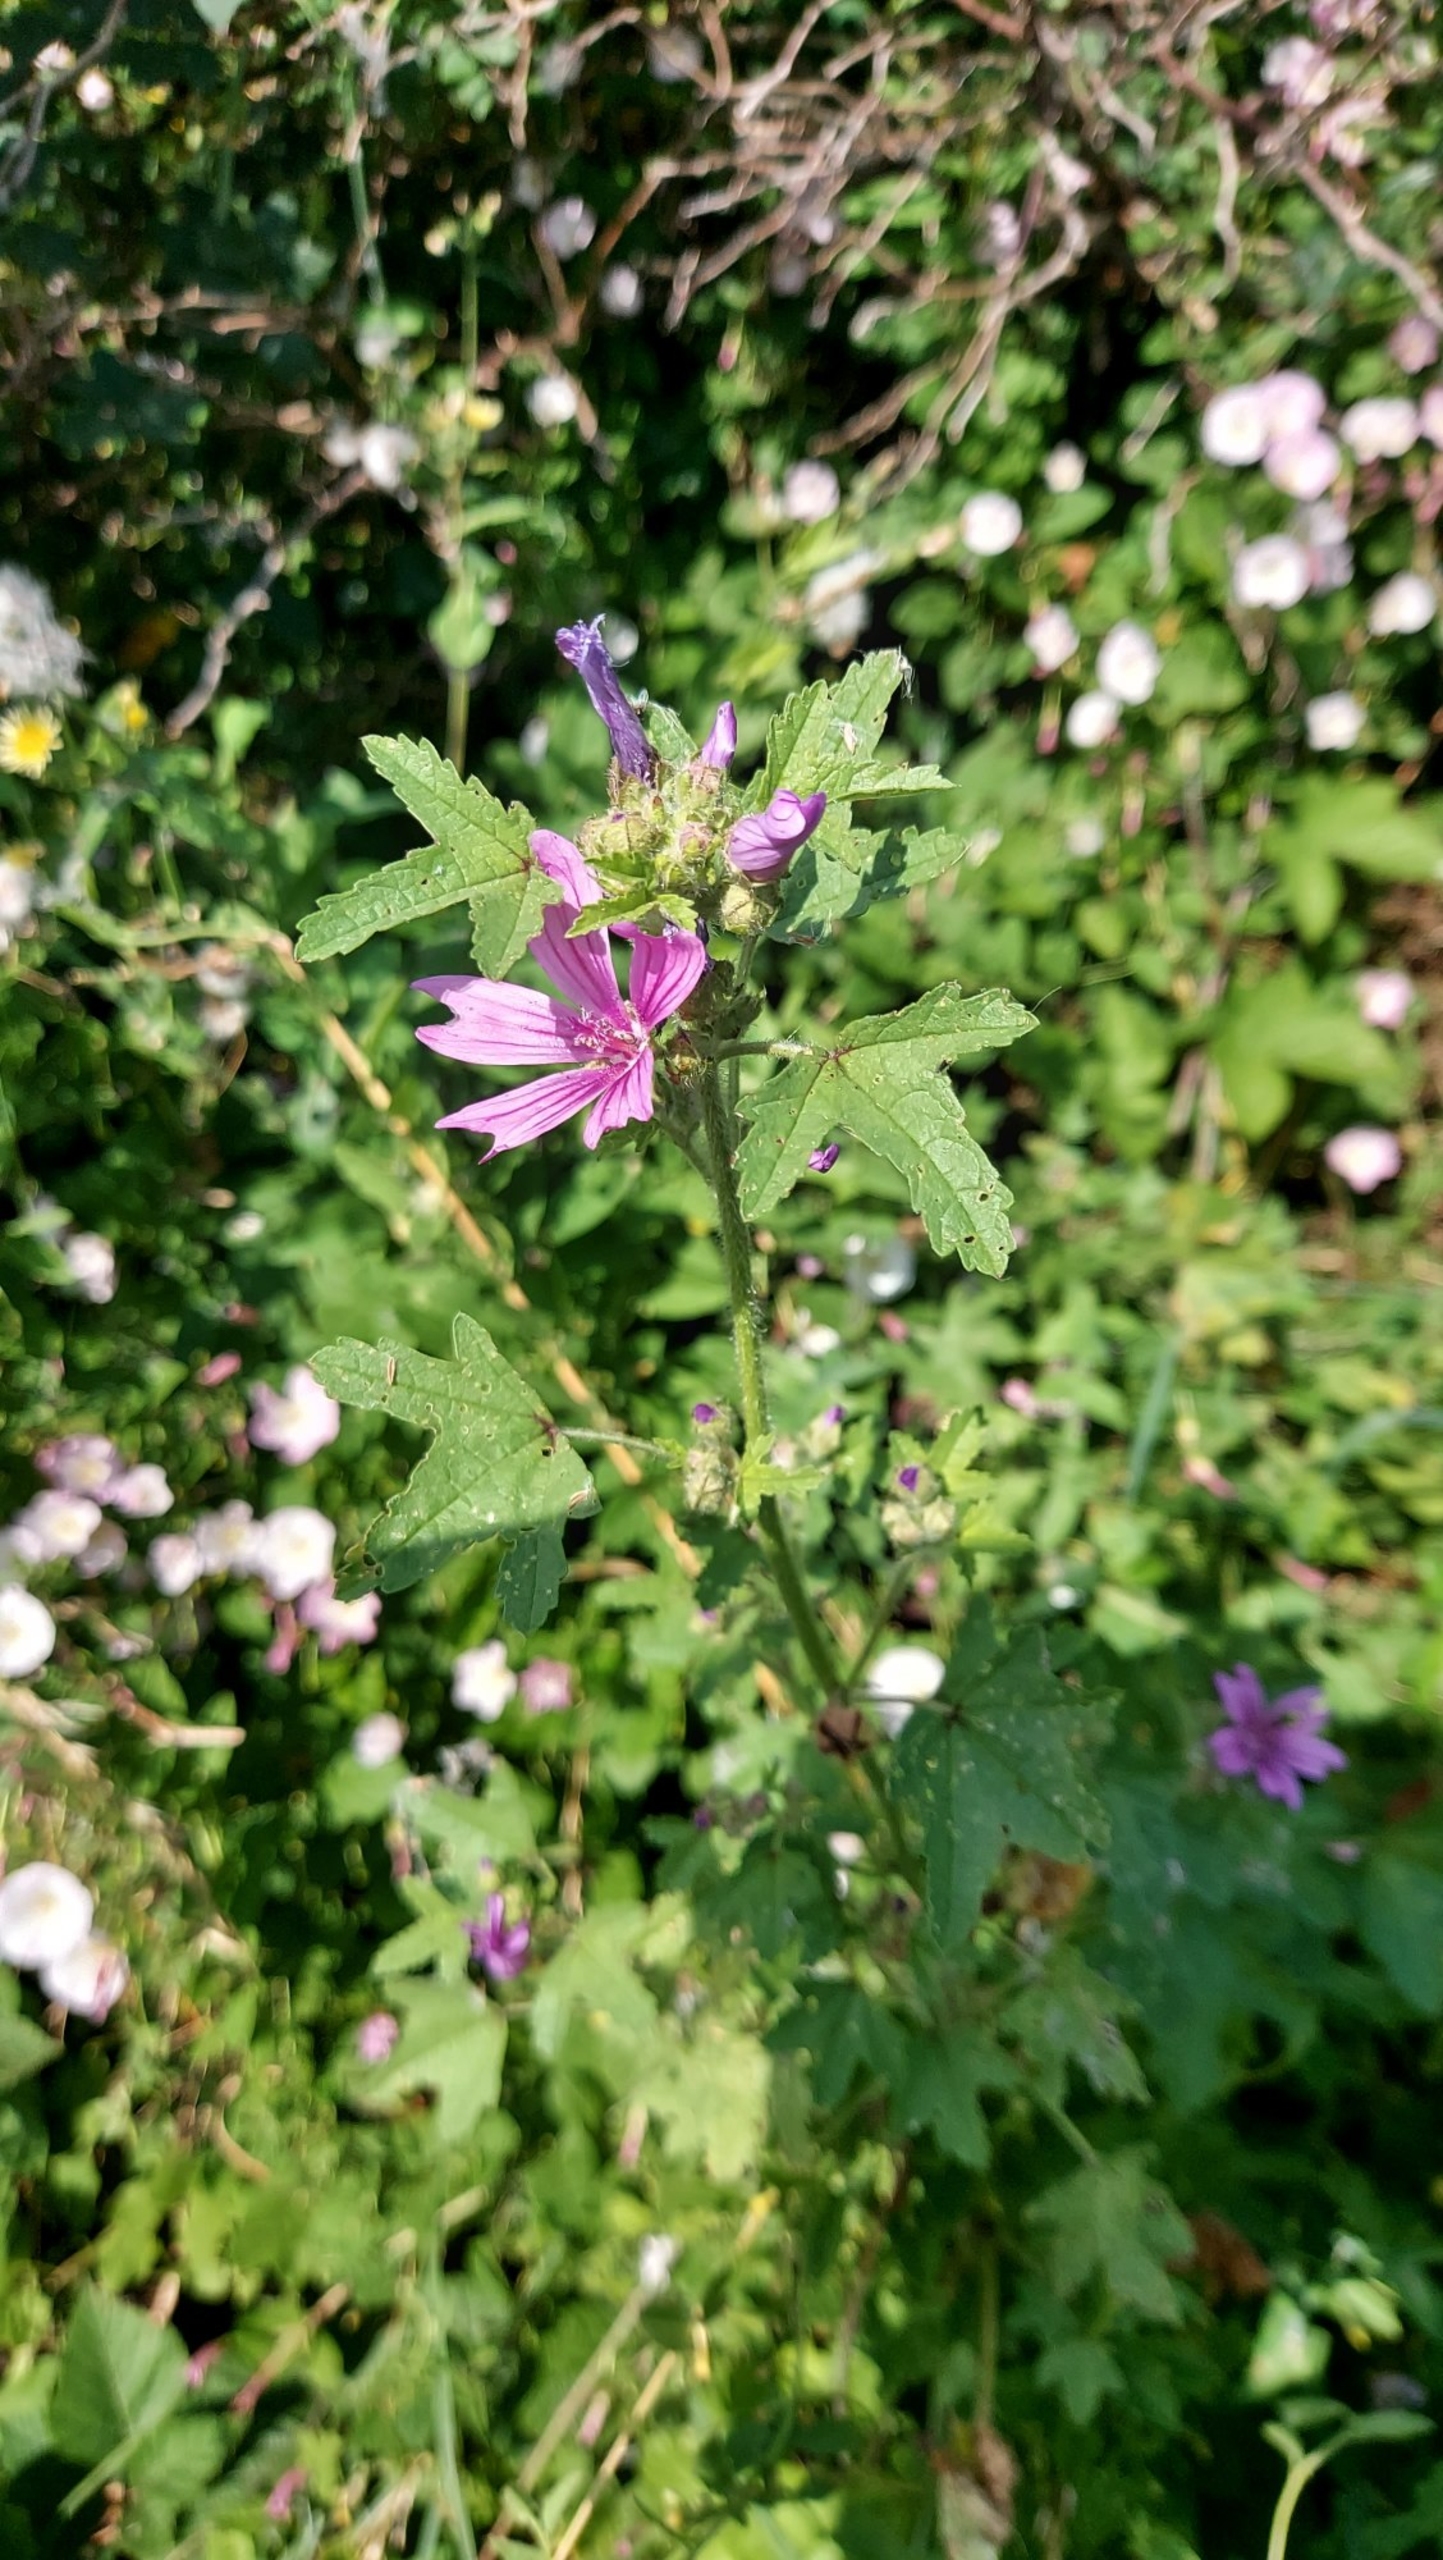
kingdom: Plantae
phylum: Tracheophyta
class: Magnoliopsida
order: Malvales
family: Malvaceae
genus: Malva
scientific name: Malva sylvestris
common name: Almindelig katost
